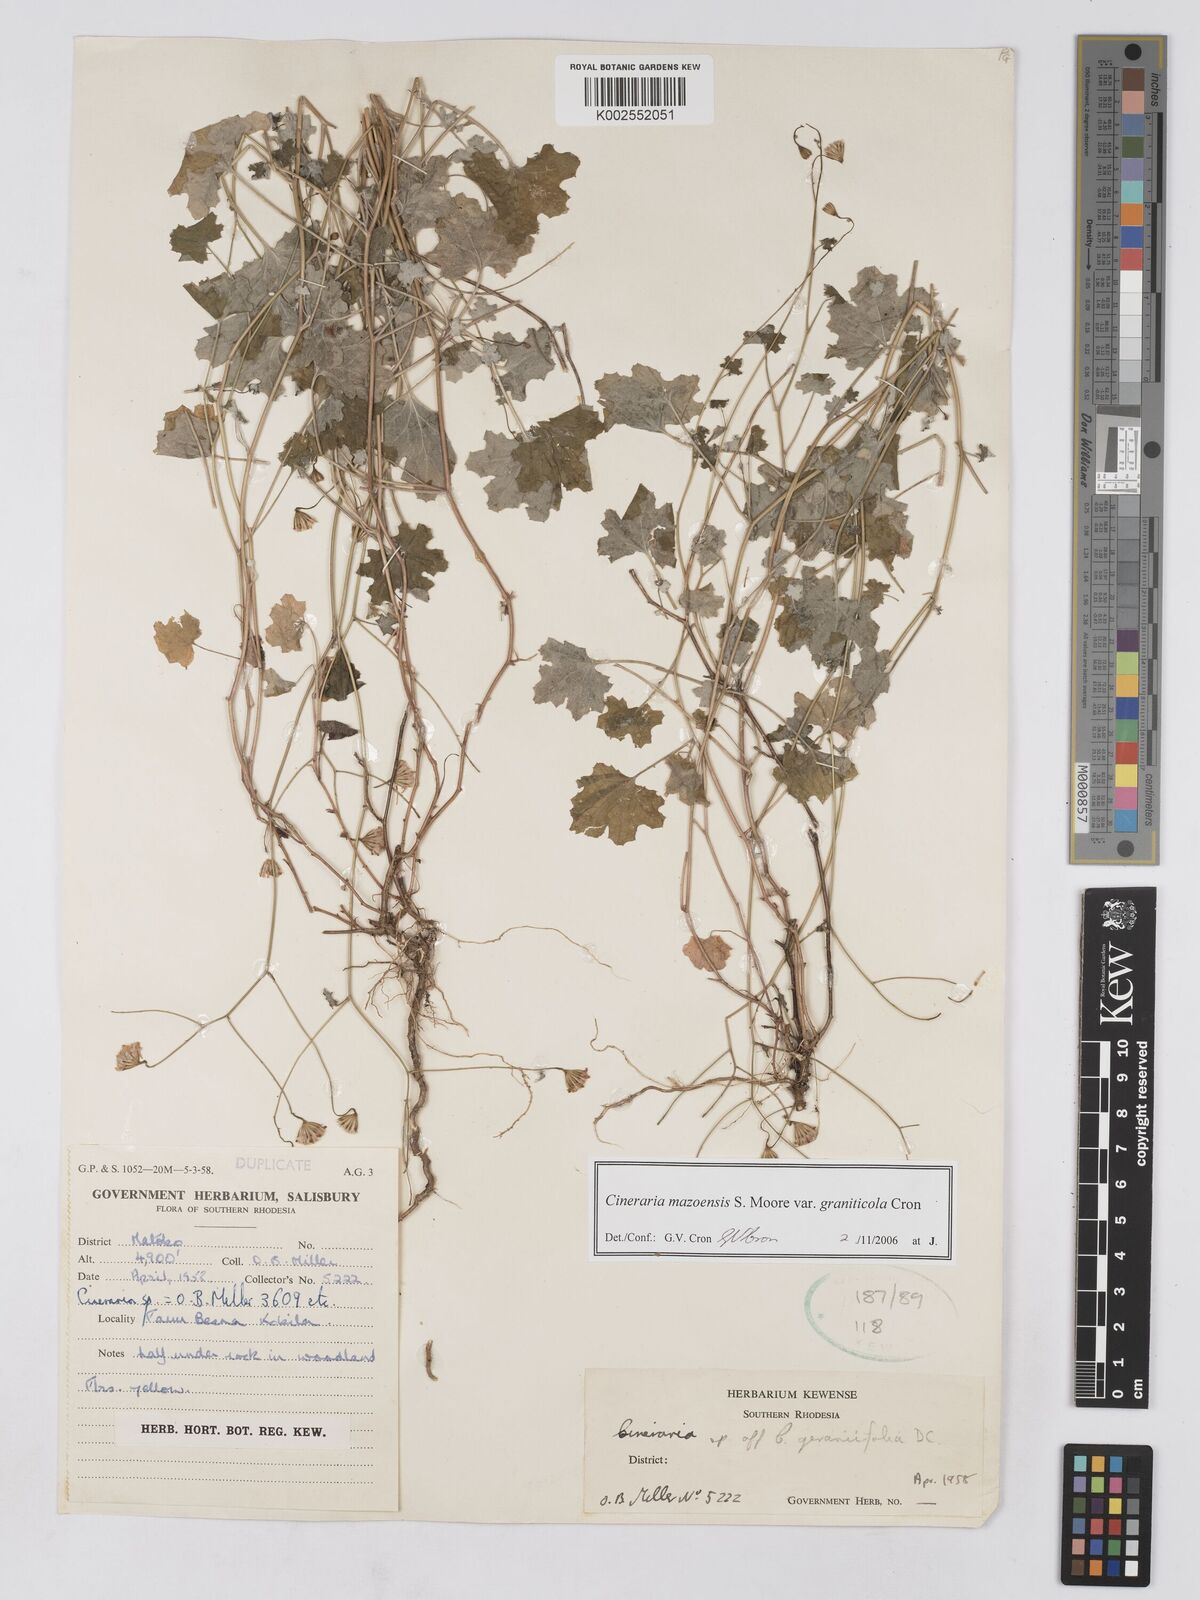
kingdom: Plantae
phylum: Tracheophyta
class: Magnoliopsida
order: Asterales
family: Asteraceae
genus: Cineraria
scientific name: Cineraria mazoensis
